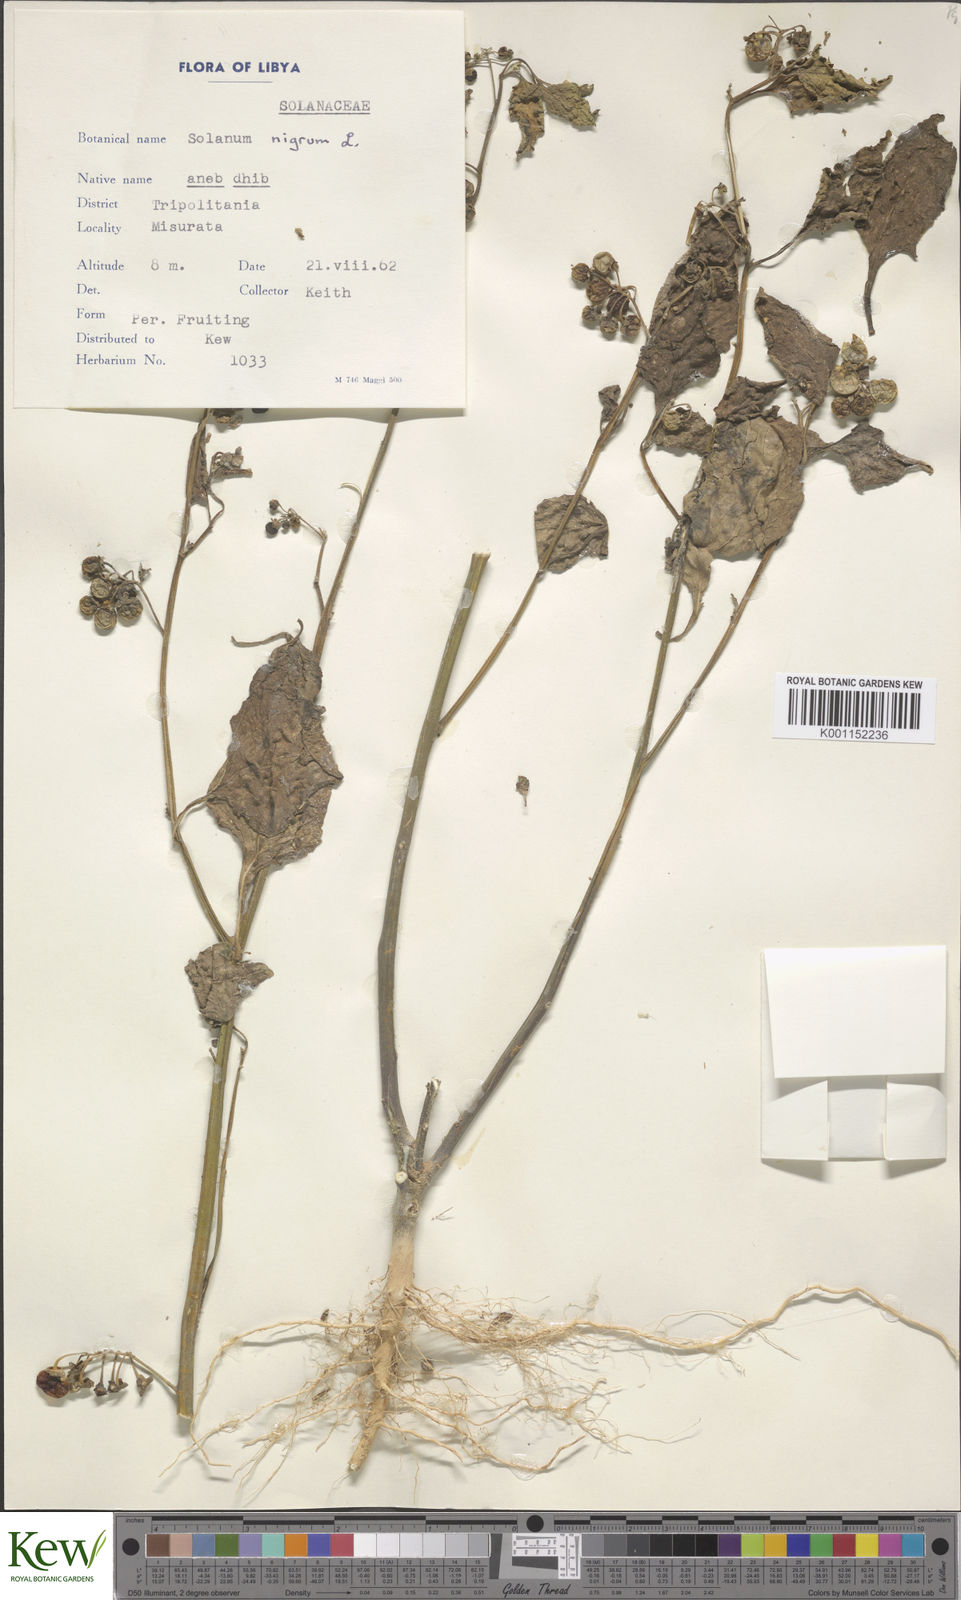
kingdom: Plantae
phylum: Tracheophyta
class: Magnoliopsida
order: Solanales
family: Solanaceae
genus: Solanum
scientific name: Solanum nigrum
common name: Black nightshade
